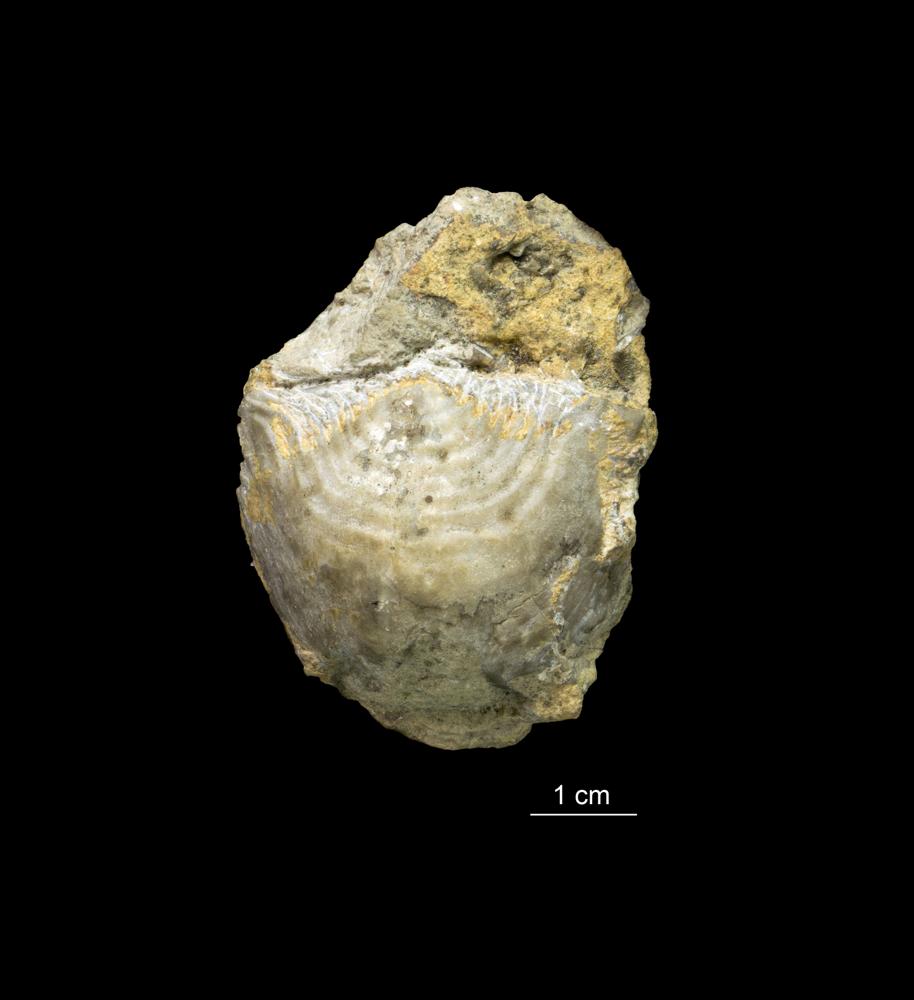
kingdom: Animalia
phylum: Brachiopoda
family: Strophomenidae
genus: Leptaena
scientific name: Leptaena
